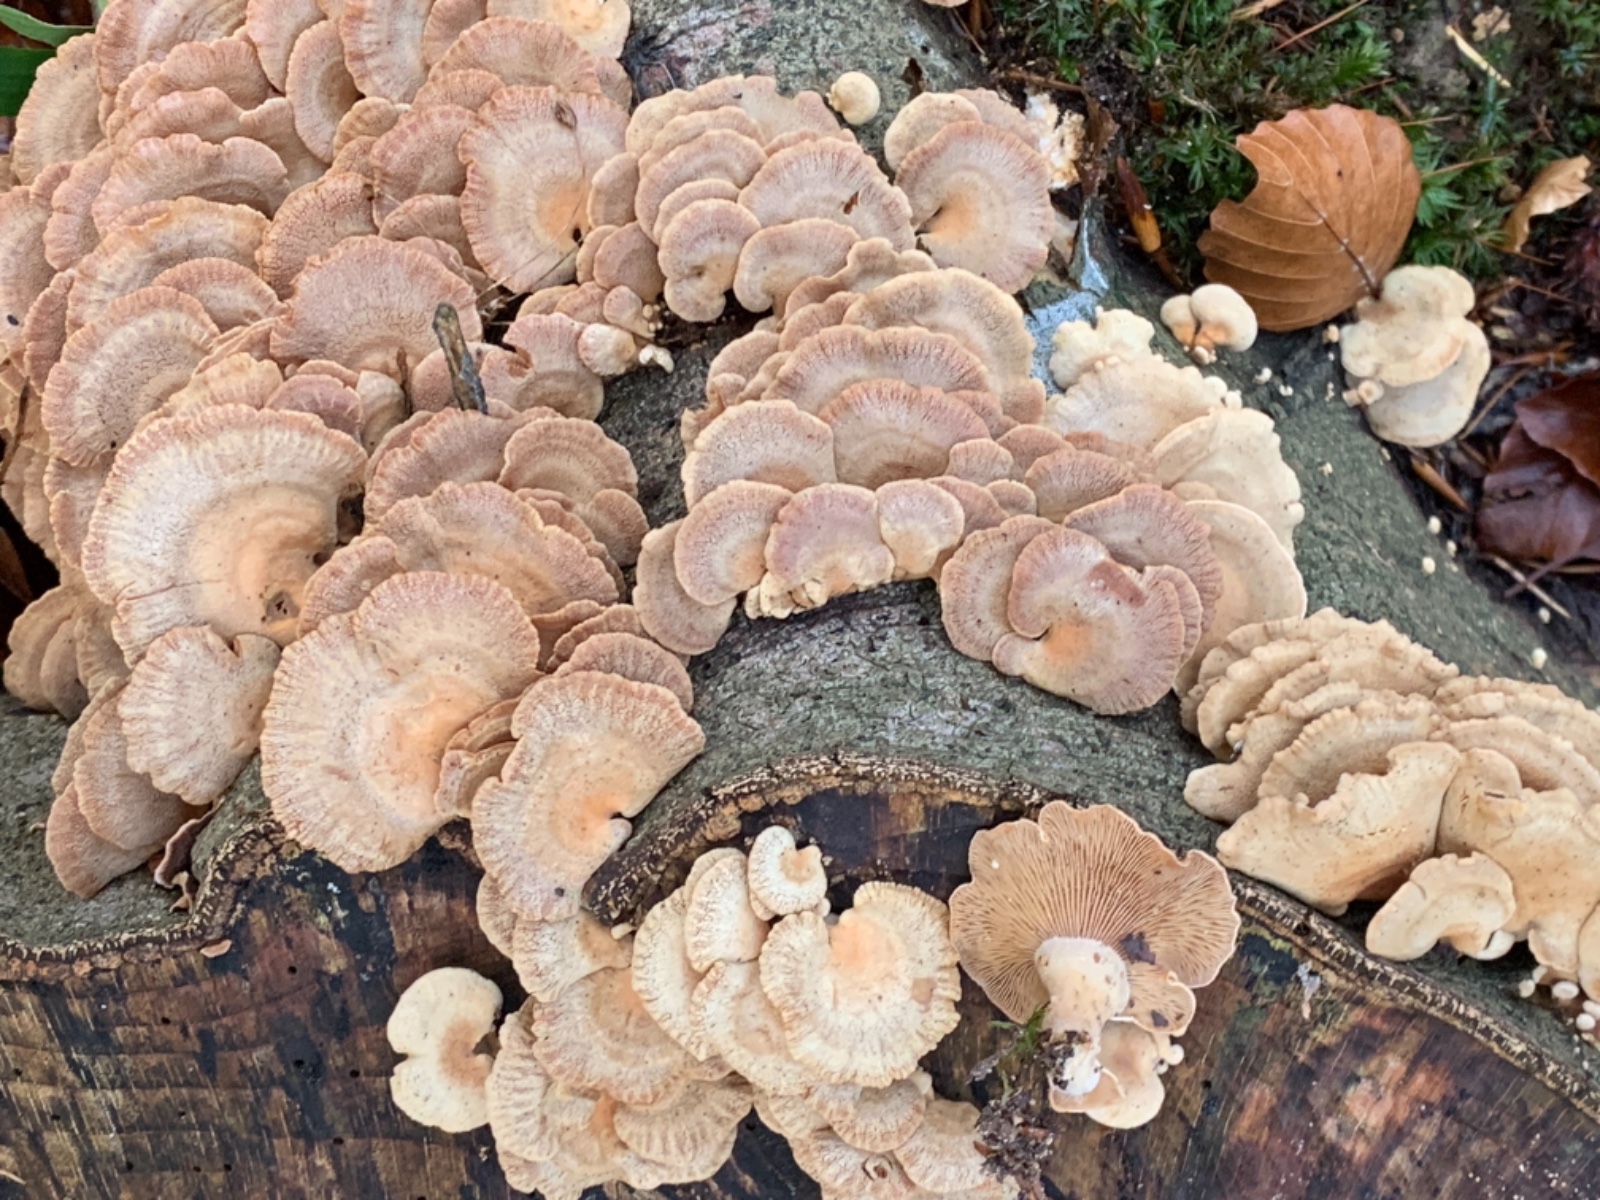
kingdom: Fungi
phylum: Basidiomycota
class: Agaricomycetes
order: Agaricales
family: Mycenaceae
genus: Panellus
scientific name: Panellus stipticus
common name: kliddet epaulethat
